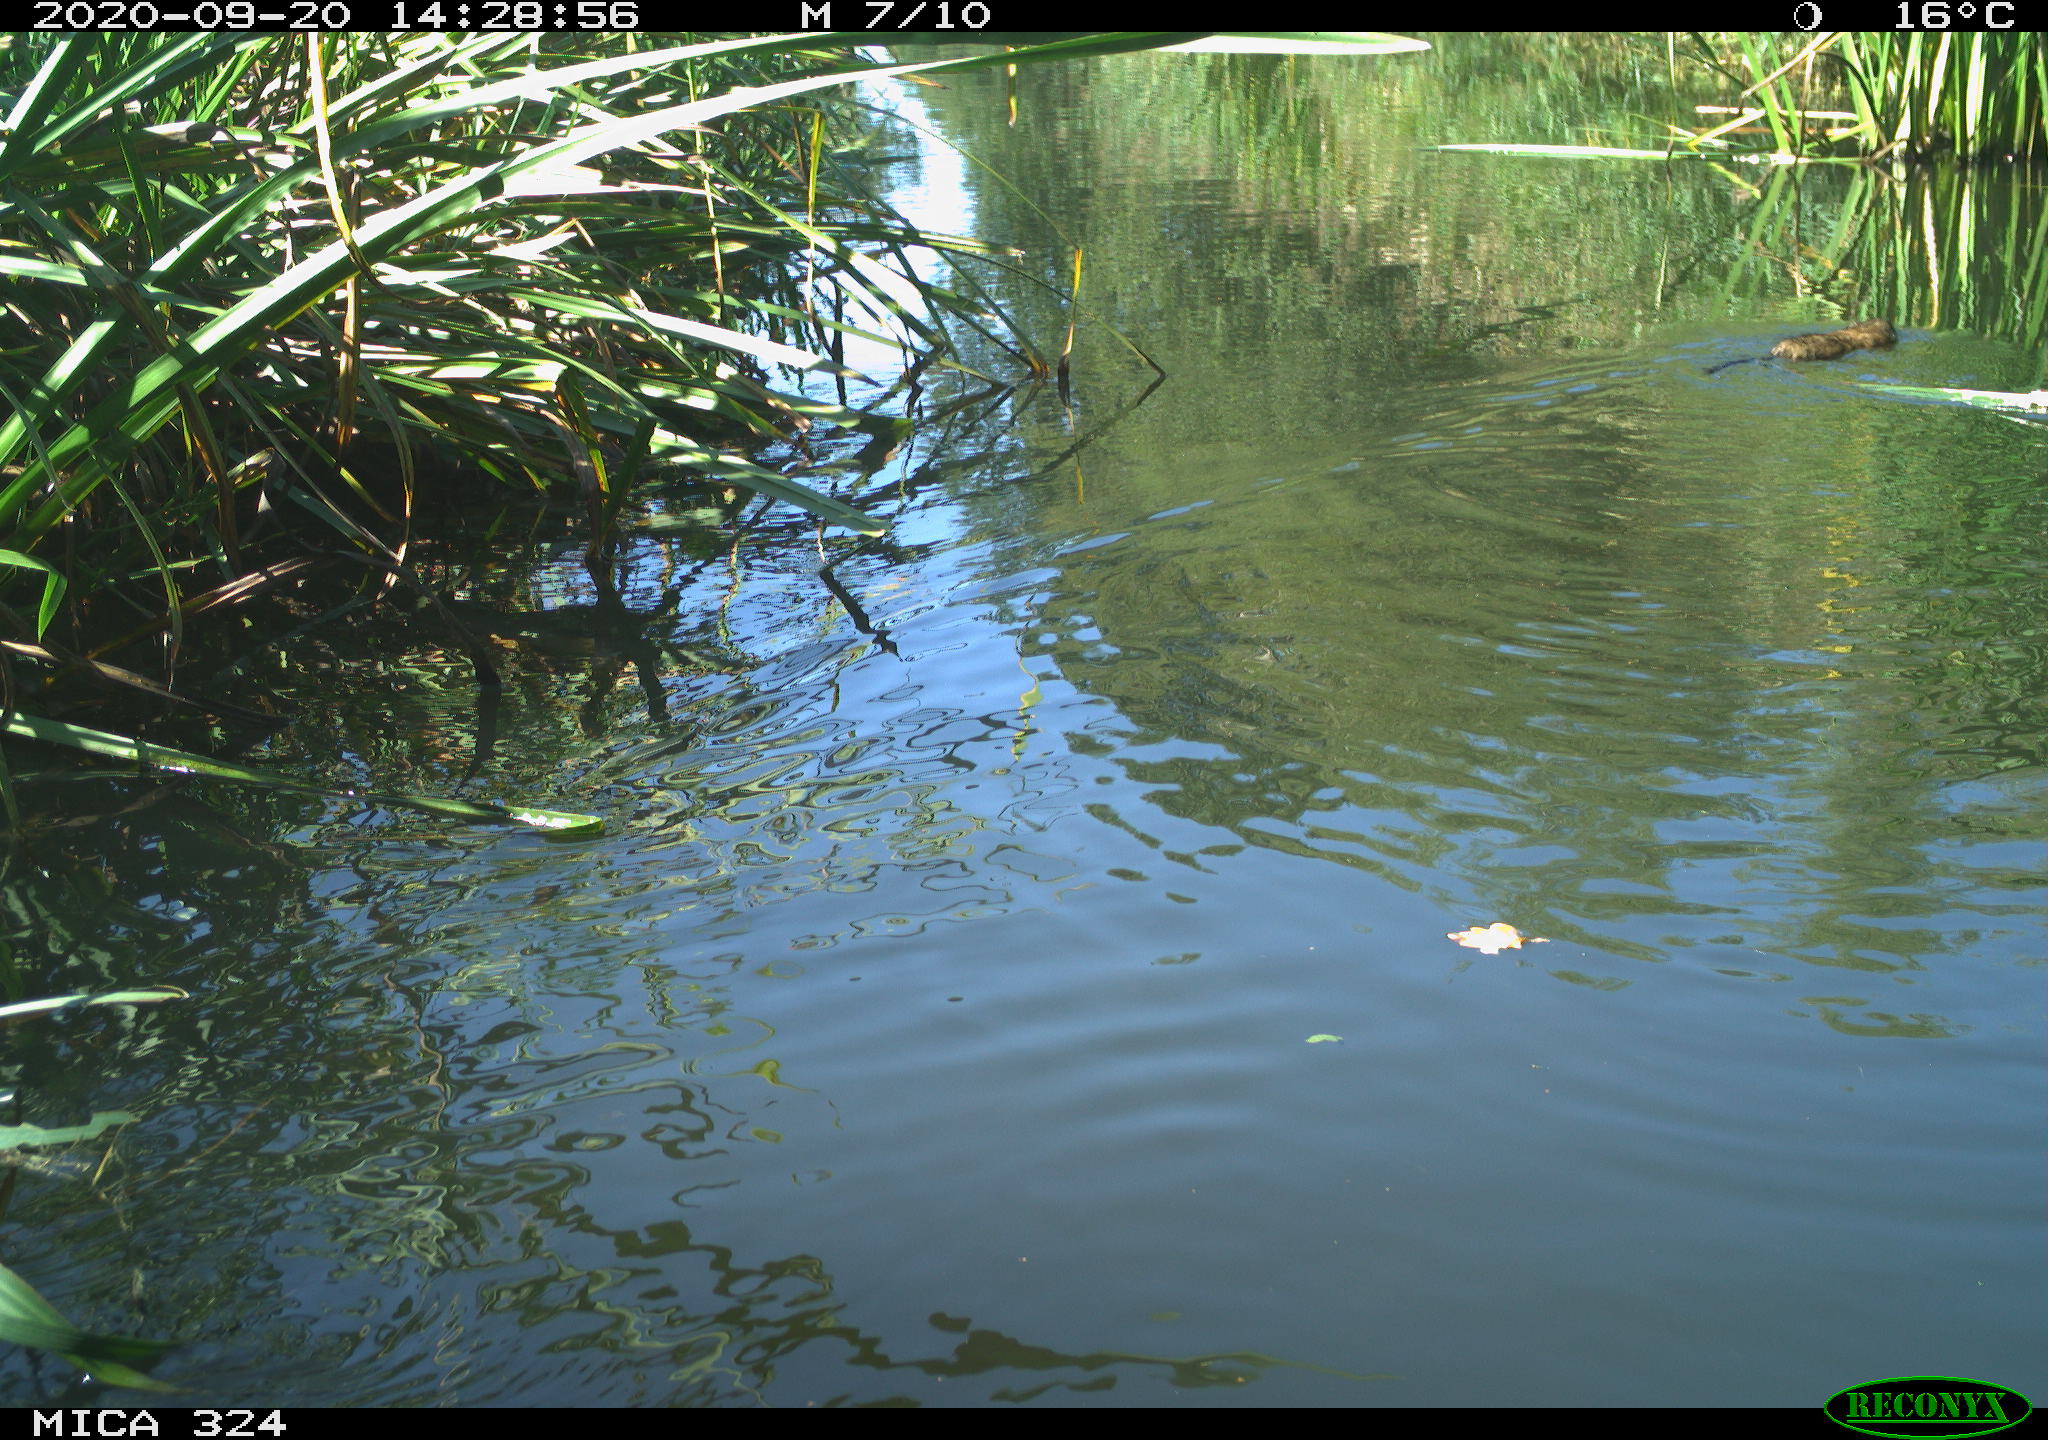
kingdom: Animalia
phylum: Chordata
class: Aves
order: Gruiformes
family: Rallidae
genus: Gallinula
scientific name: Gallinula chloropus
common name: Common moorhen
